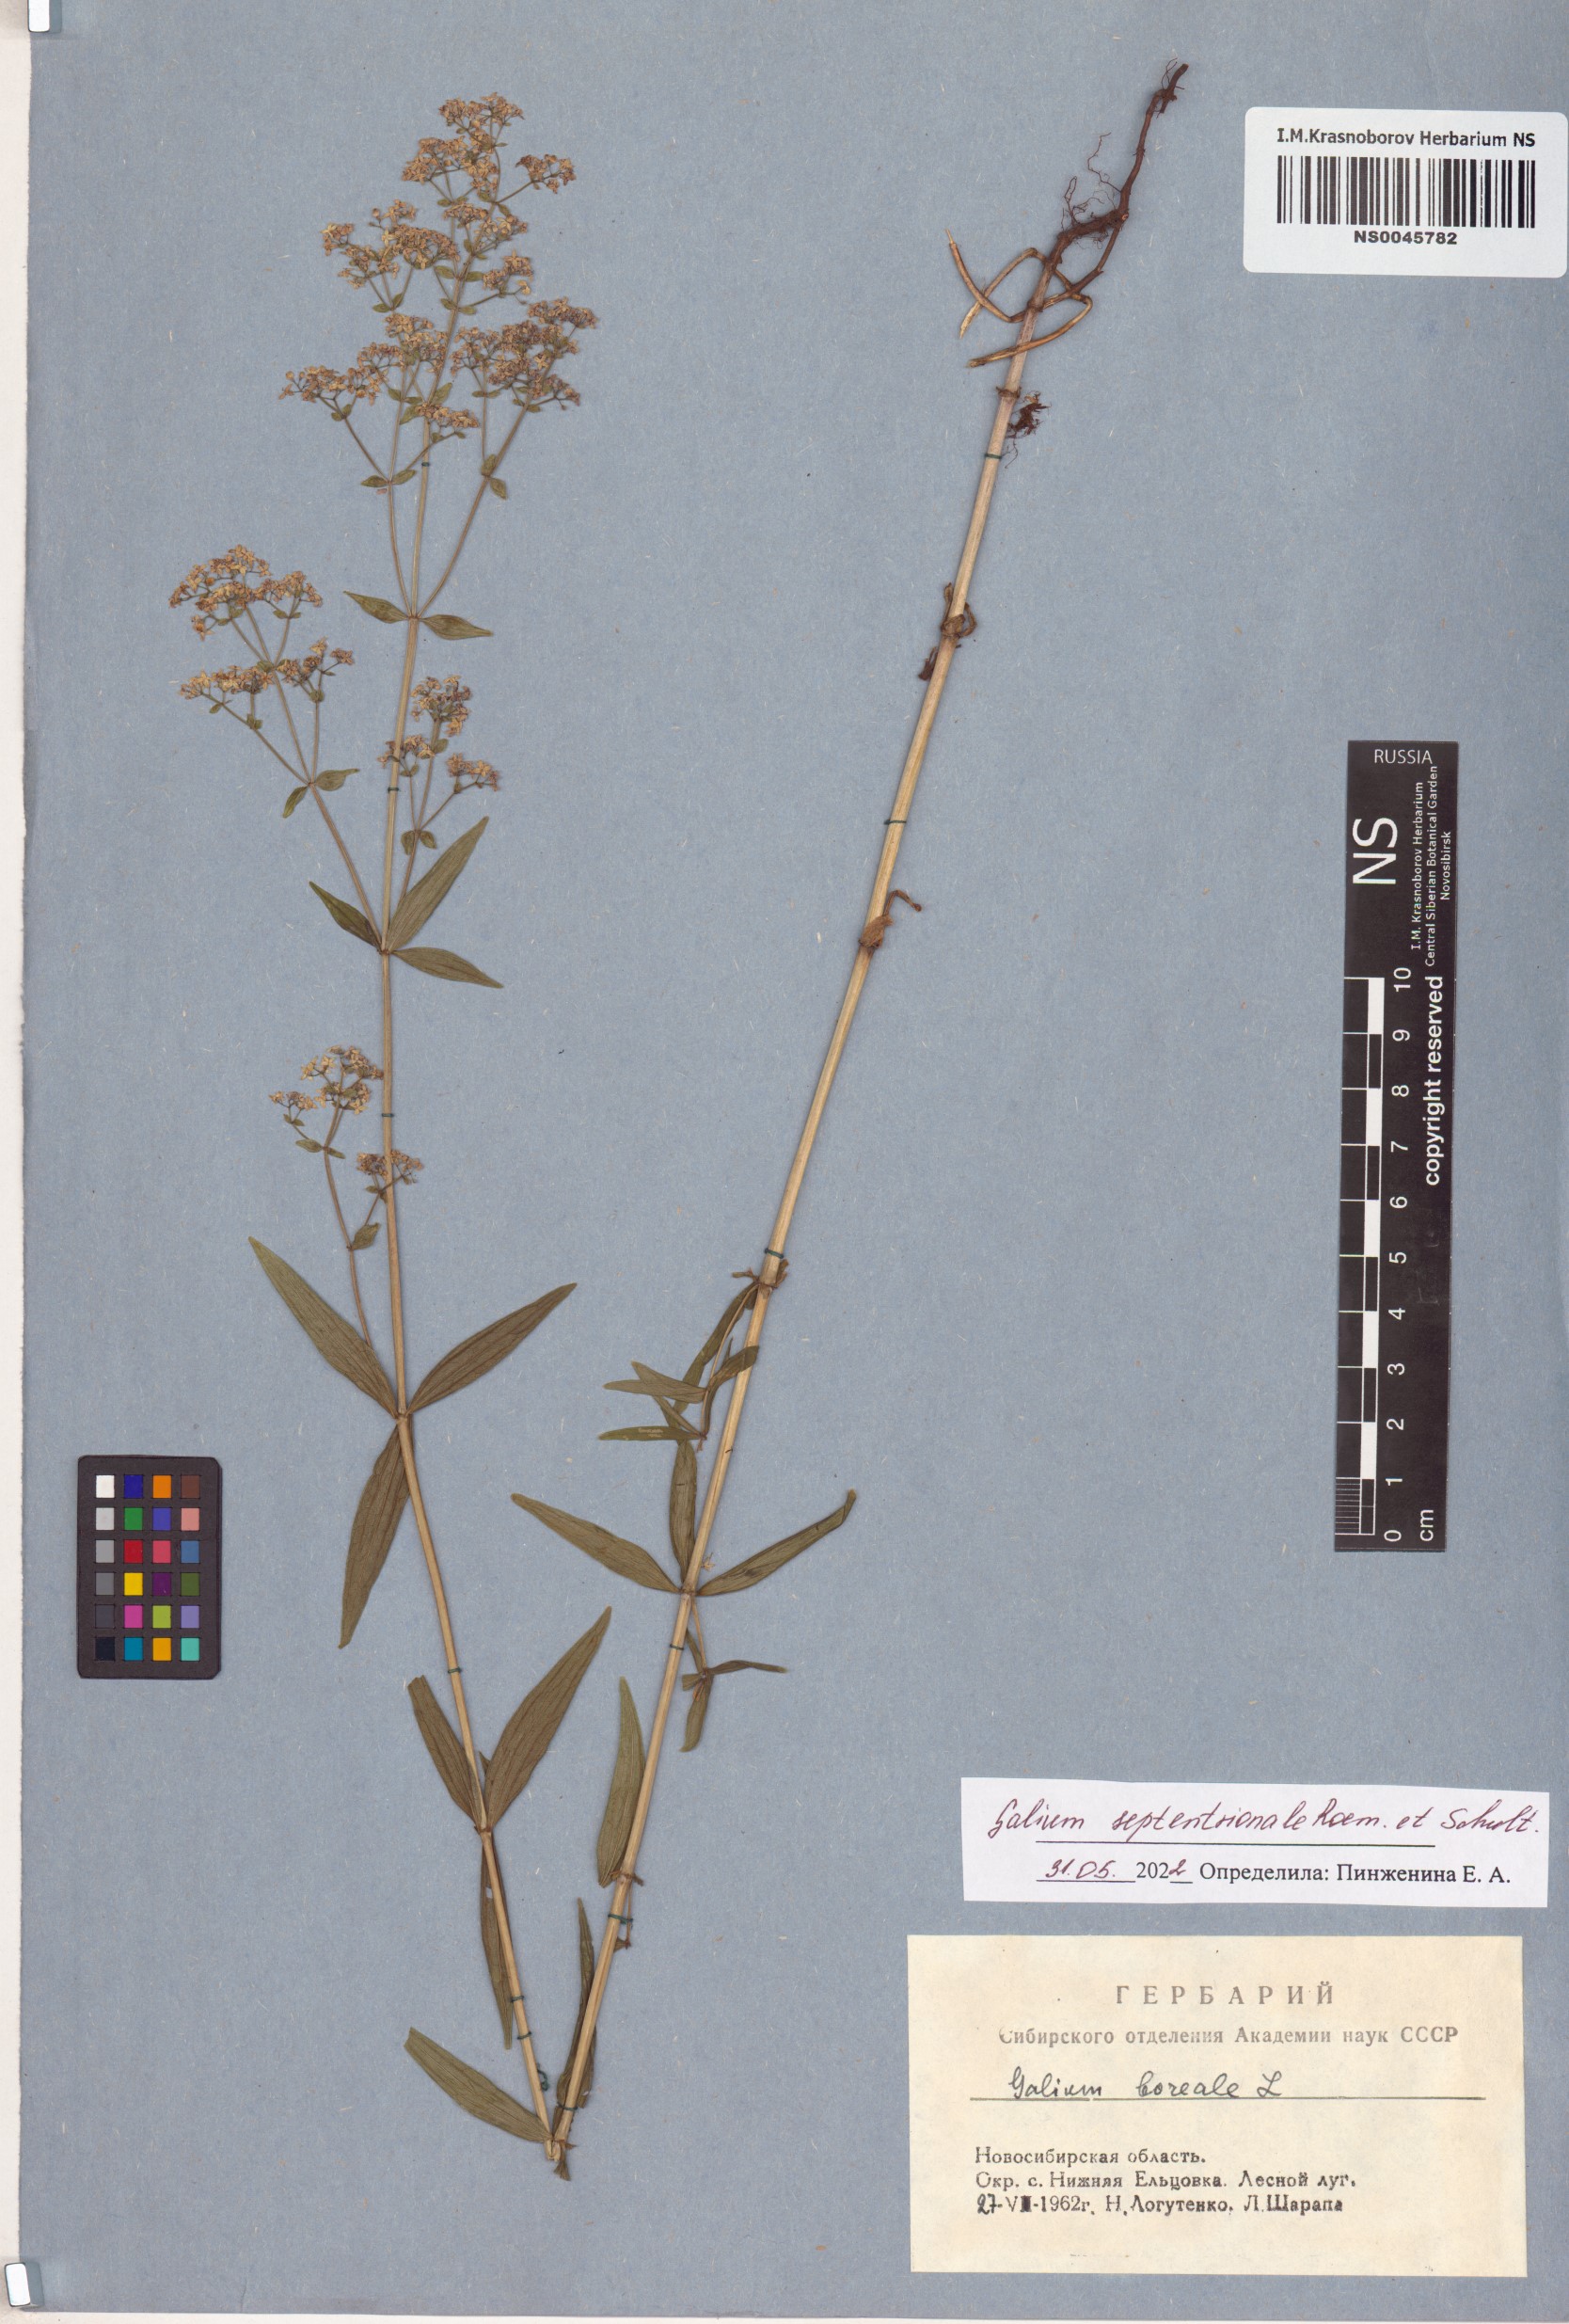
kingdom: Plantae
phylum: Tracheophyta
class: Magnoliopsida
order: Gentianales
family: Rubiaceae
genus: Galium
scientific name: Galium boreale
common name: Northern bedstraw
